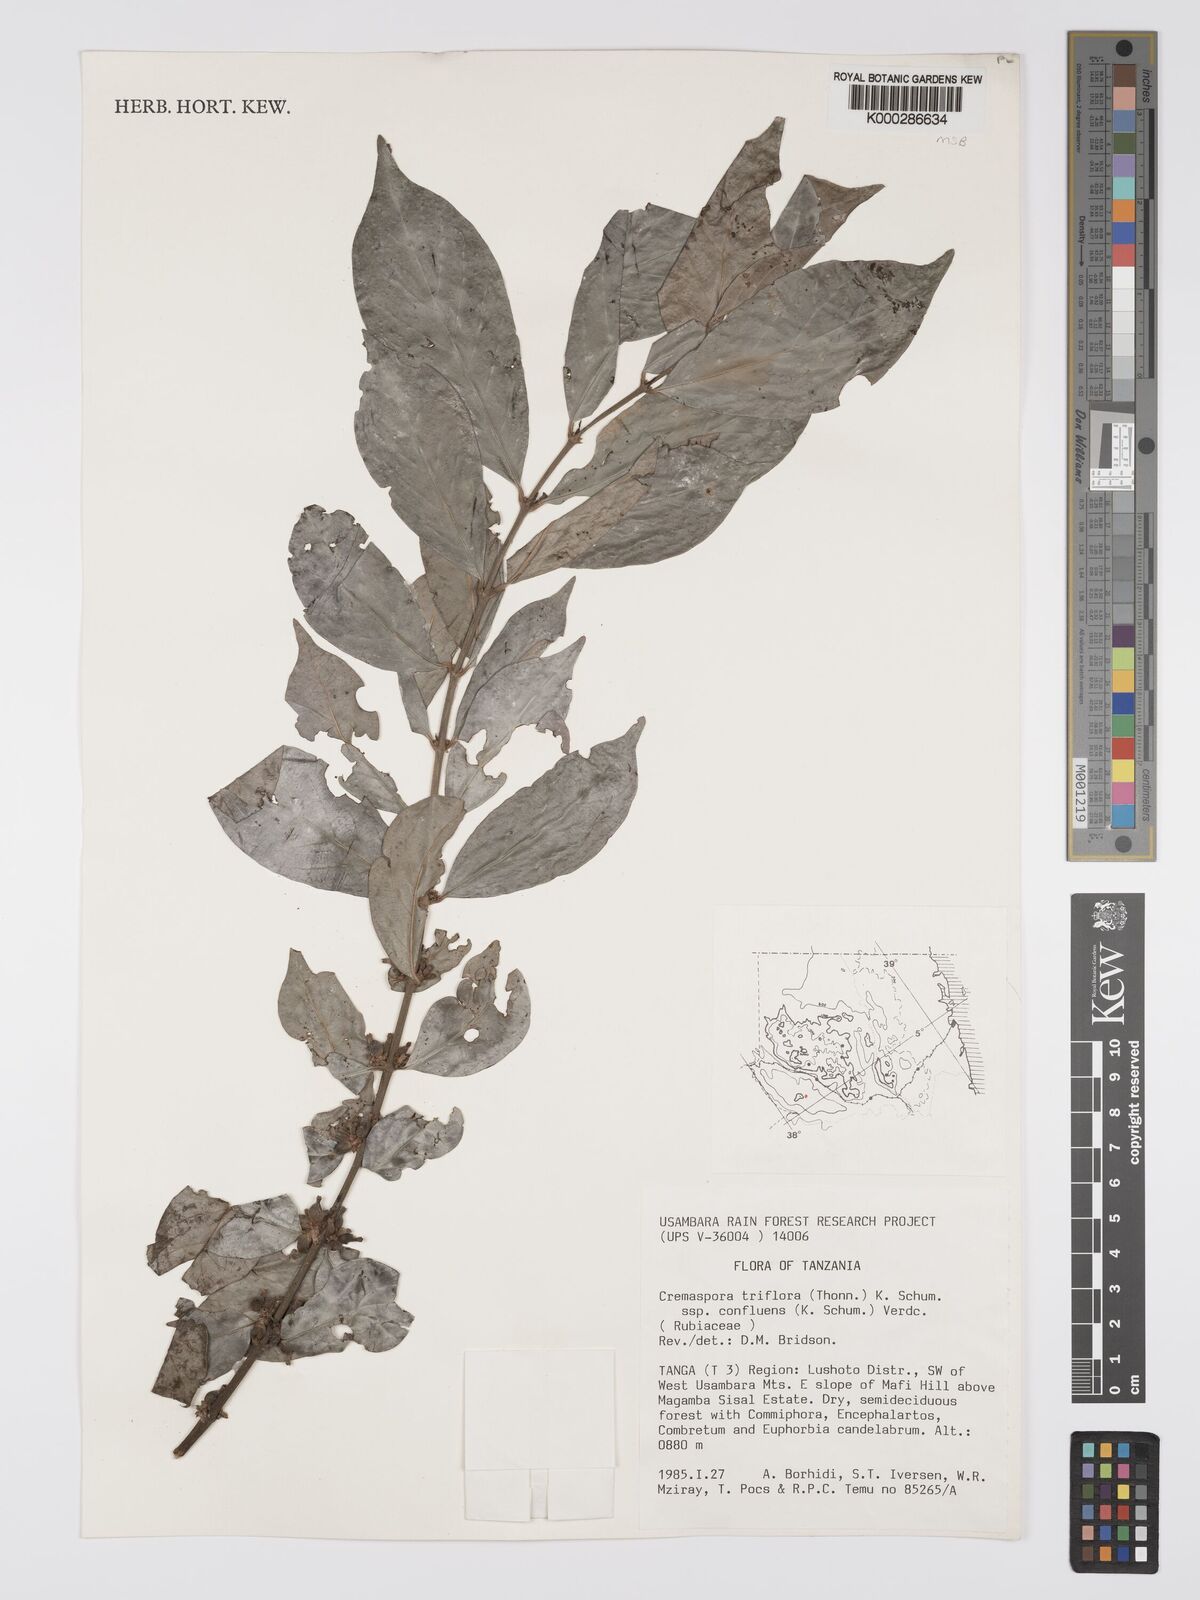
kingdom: Plantae
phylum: Tracheophyta
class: Magnoliopsida
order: Gentianales
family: Rubiaceae
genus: Cremaspora
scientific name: Cremaspora triflora
